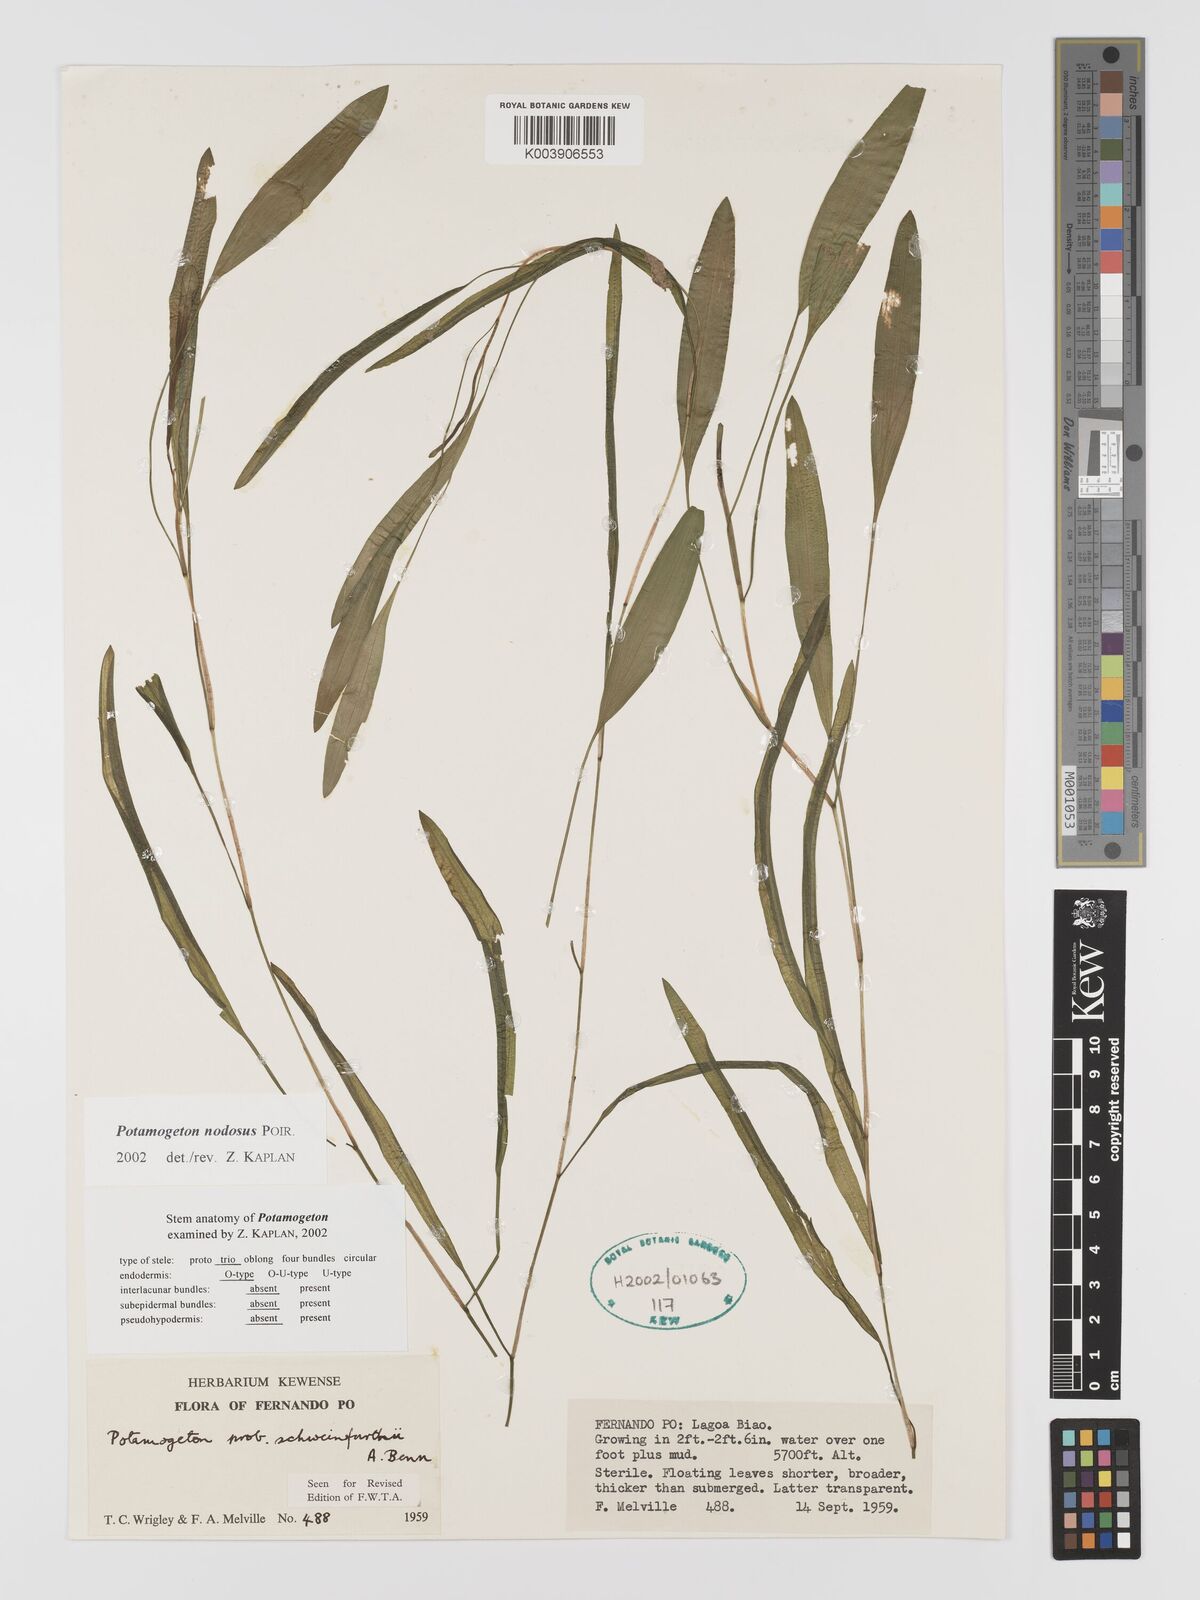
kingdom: Plantae
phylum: Tracheophyta
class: Liliopsida
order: Alismatales
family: Potamogetonaceae
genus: Potamogeton
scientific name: Potamogeton nodosus
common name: Loddon pondweed
